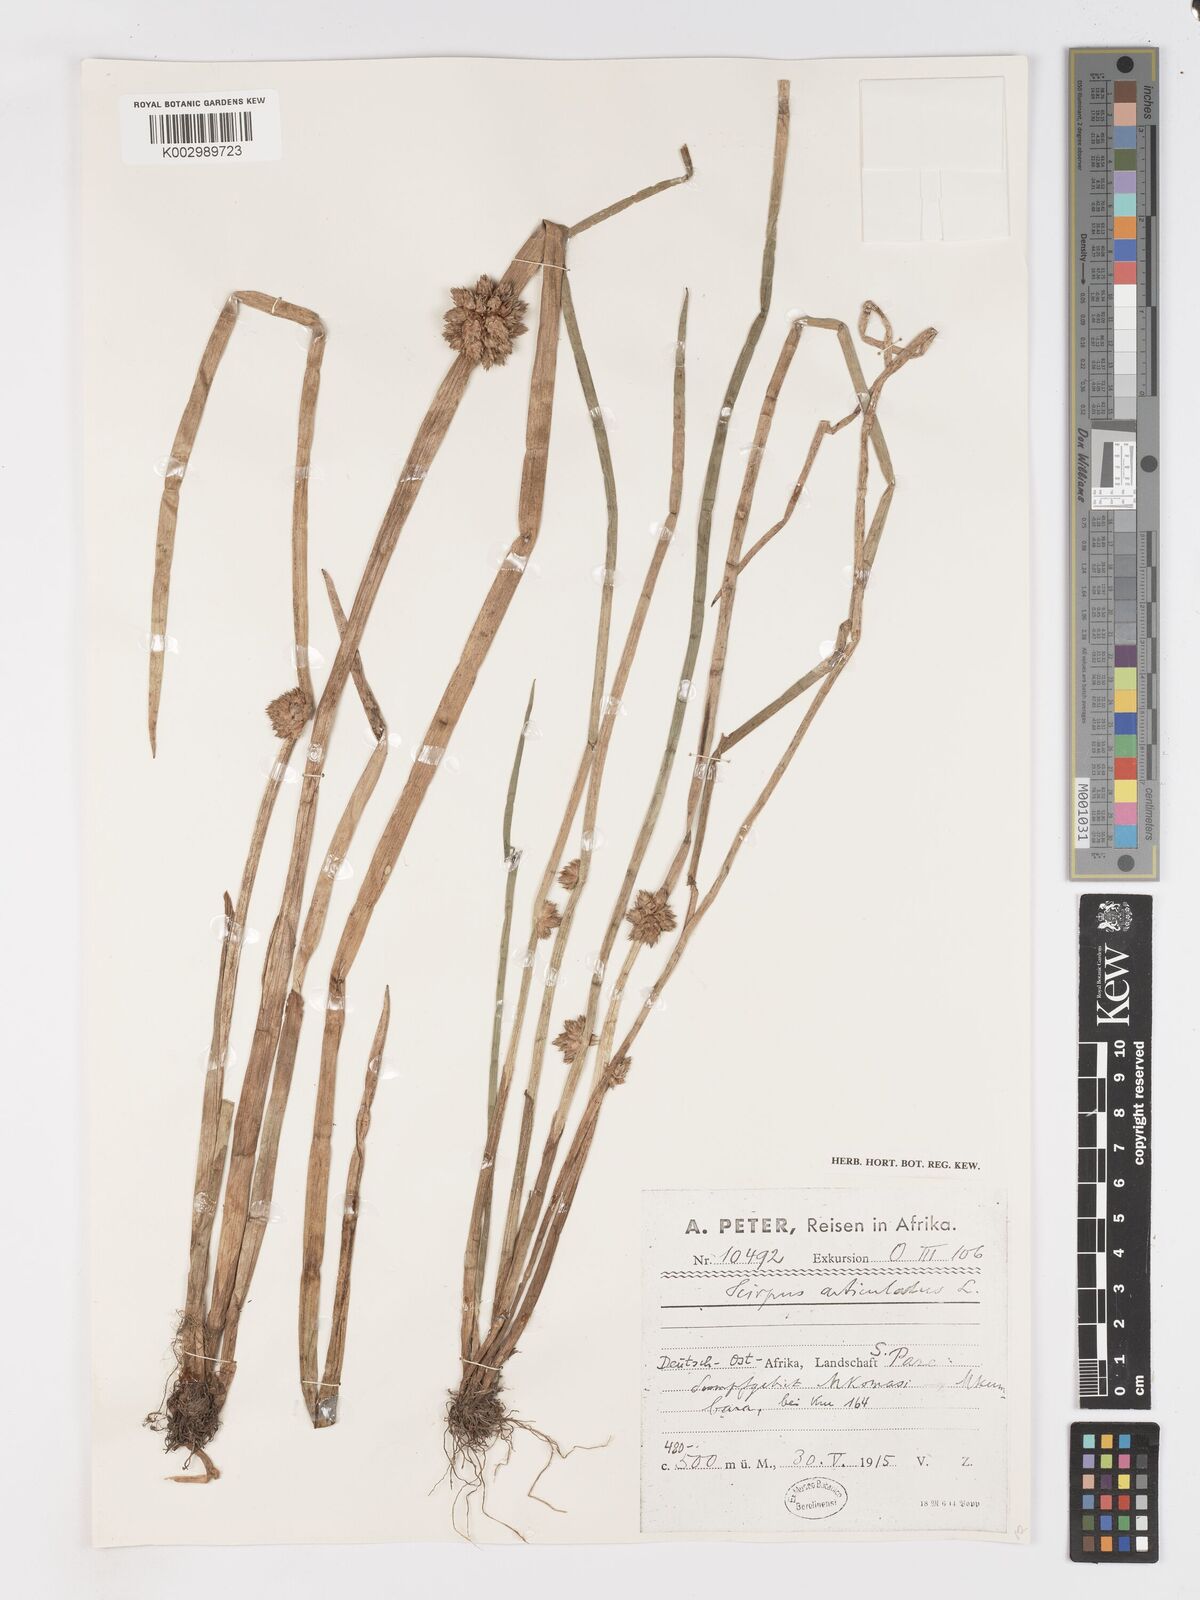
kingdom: Plantae
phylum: Tracheophyta
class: Liliopsida
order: Poales
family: Cyperaceae
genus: Schoenoplectiella
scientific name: Schoenoplectiella articulata
